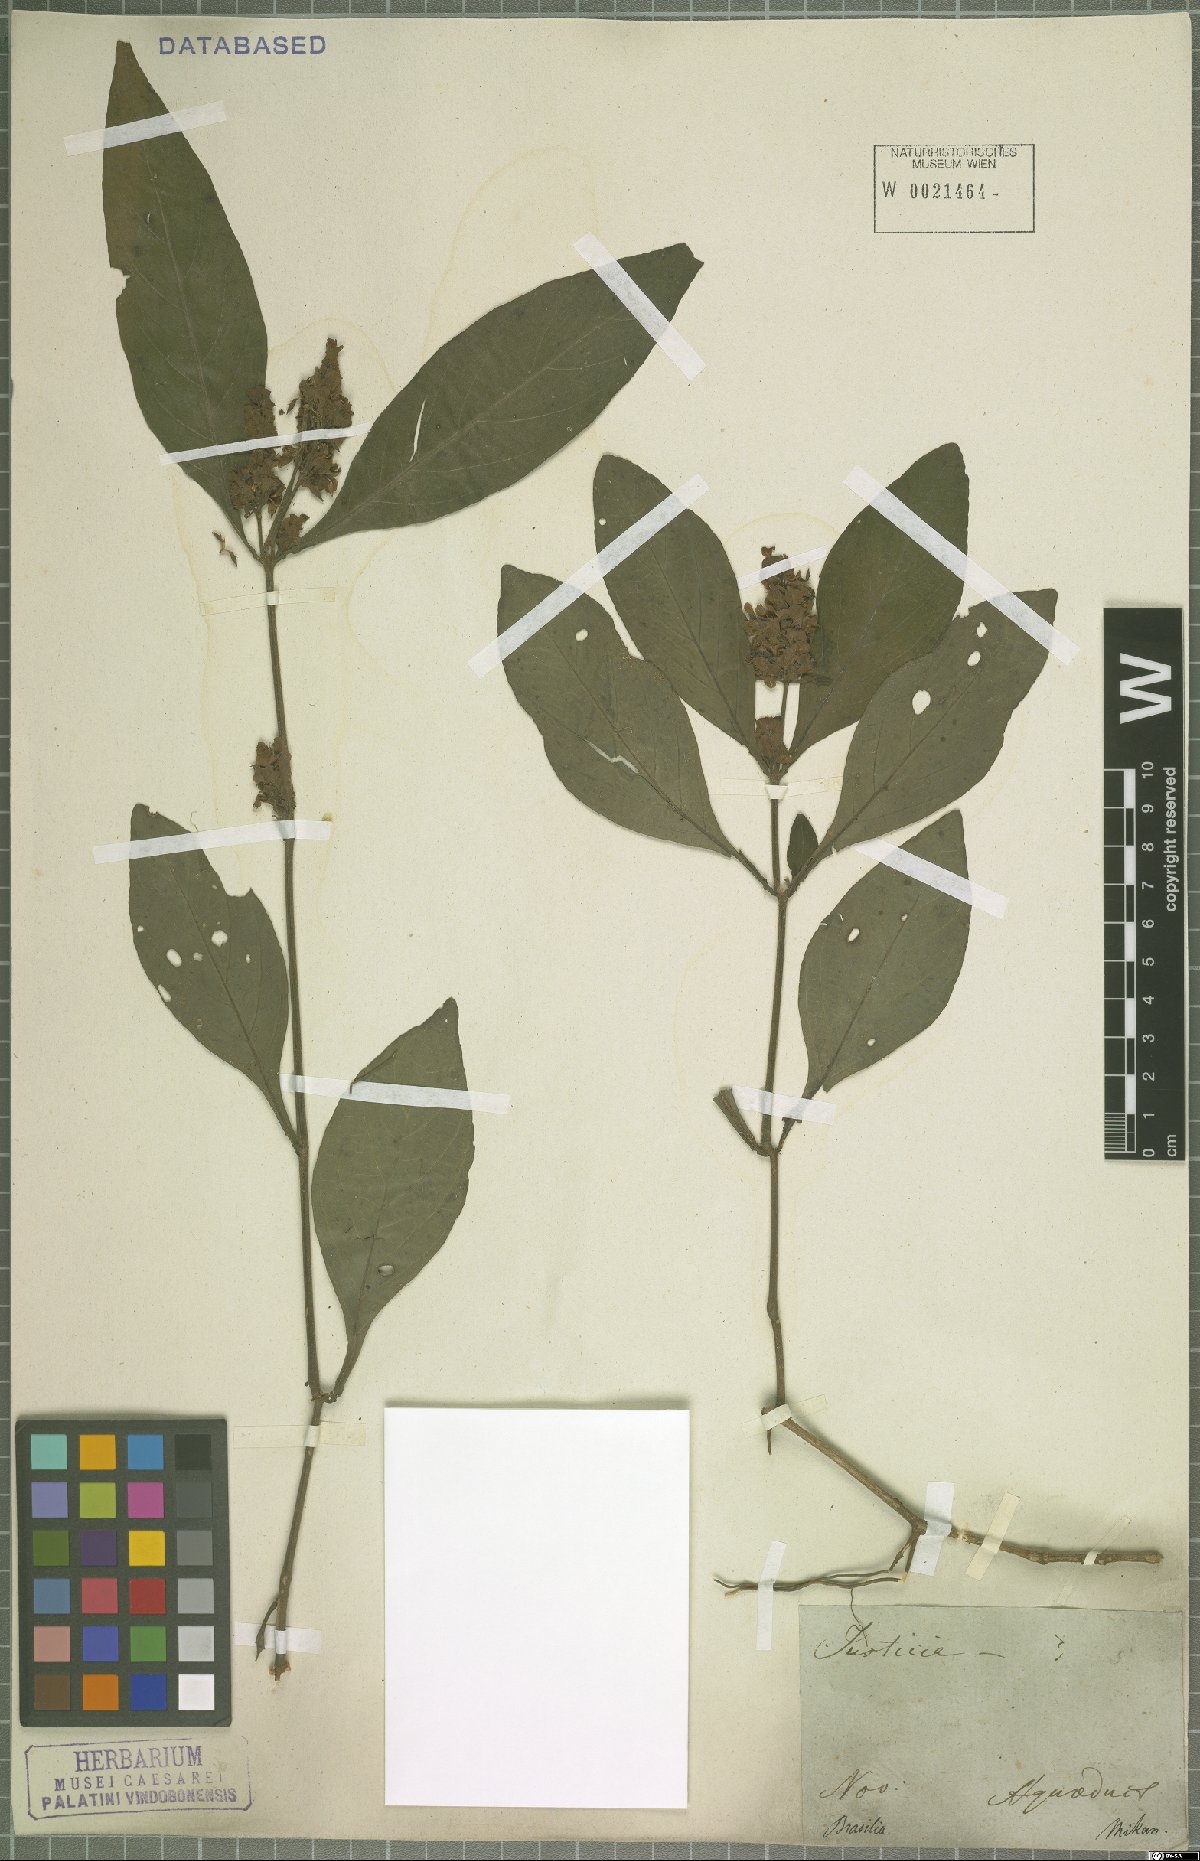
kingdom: Plantae
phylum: Tracheophyta
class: Magnoliopsida
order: Lamiales
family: Acanthaceae
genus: Justicia
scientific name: Justicia
